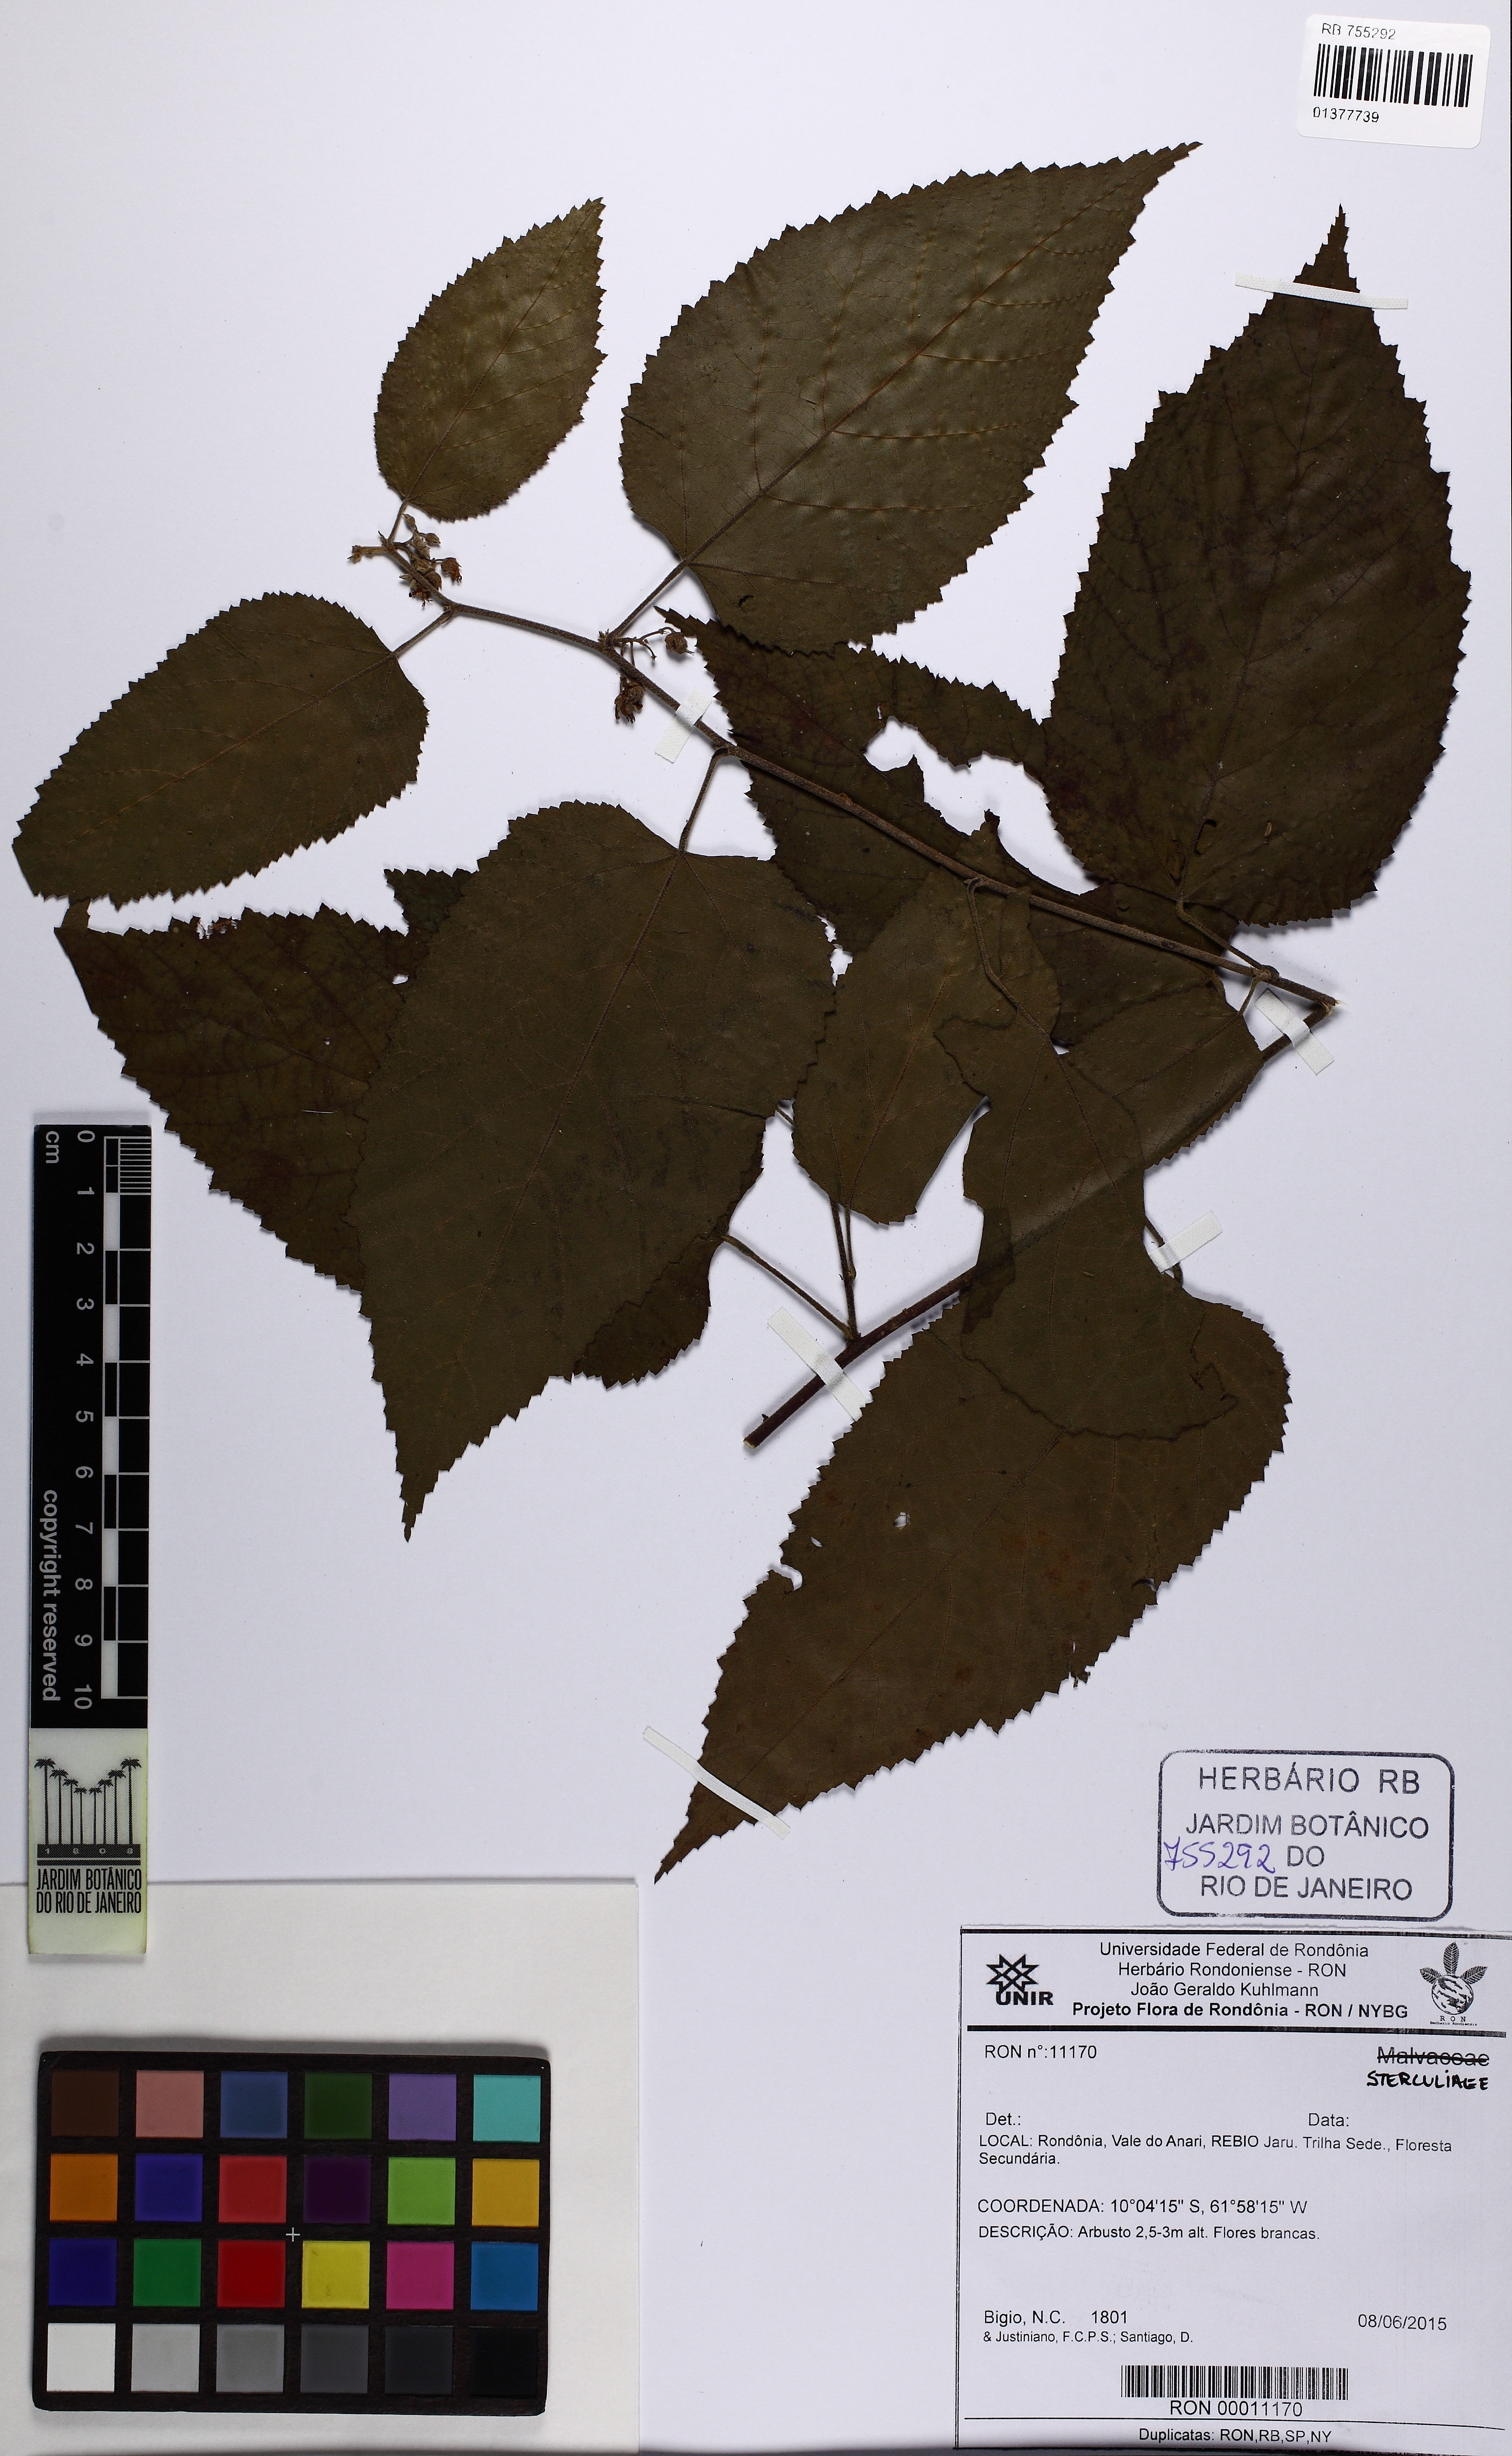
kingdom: Plantae
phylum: Tracheophyta
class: Magnoliopsida
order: Malvales
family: Malvaceae
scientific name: Malvaceae
